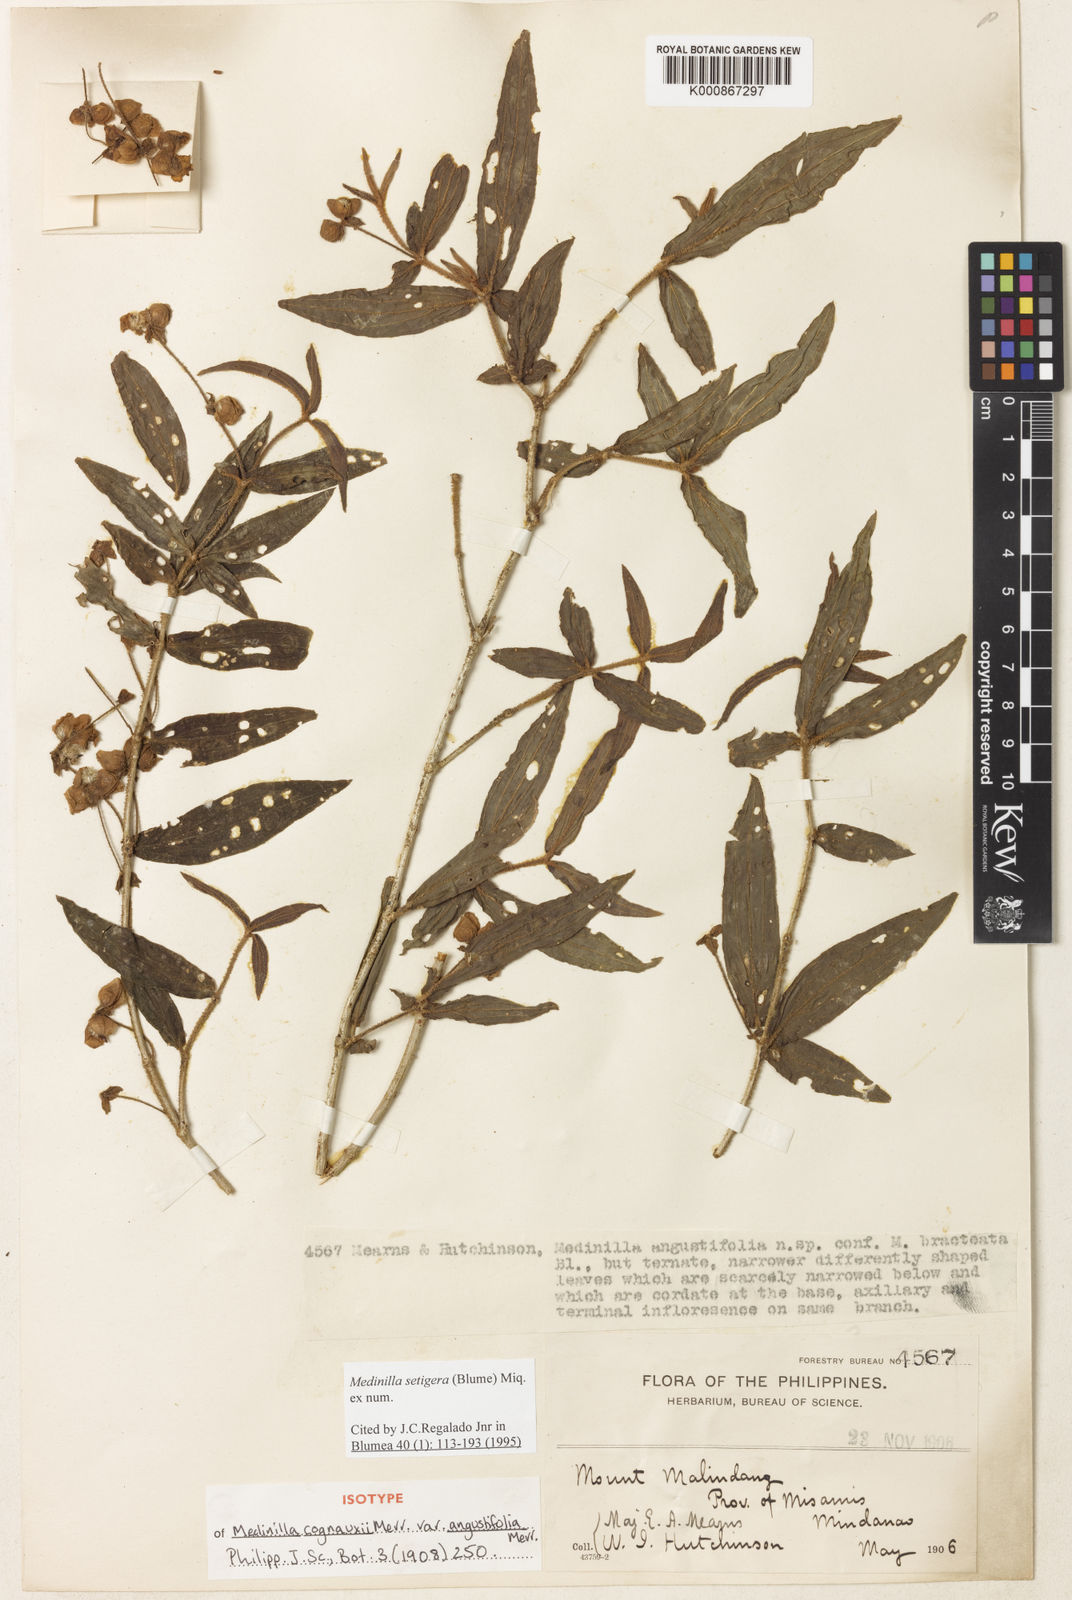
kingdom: Plantae
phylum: Tracheophyta
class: Magnoliopsida
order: Myrtales
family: Melastomataceae
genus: Medinilla
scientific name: Medinilla setigera
